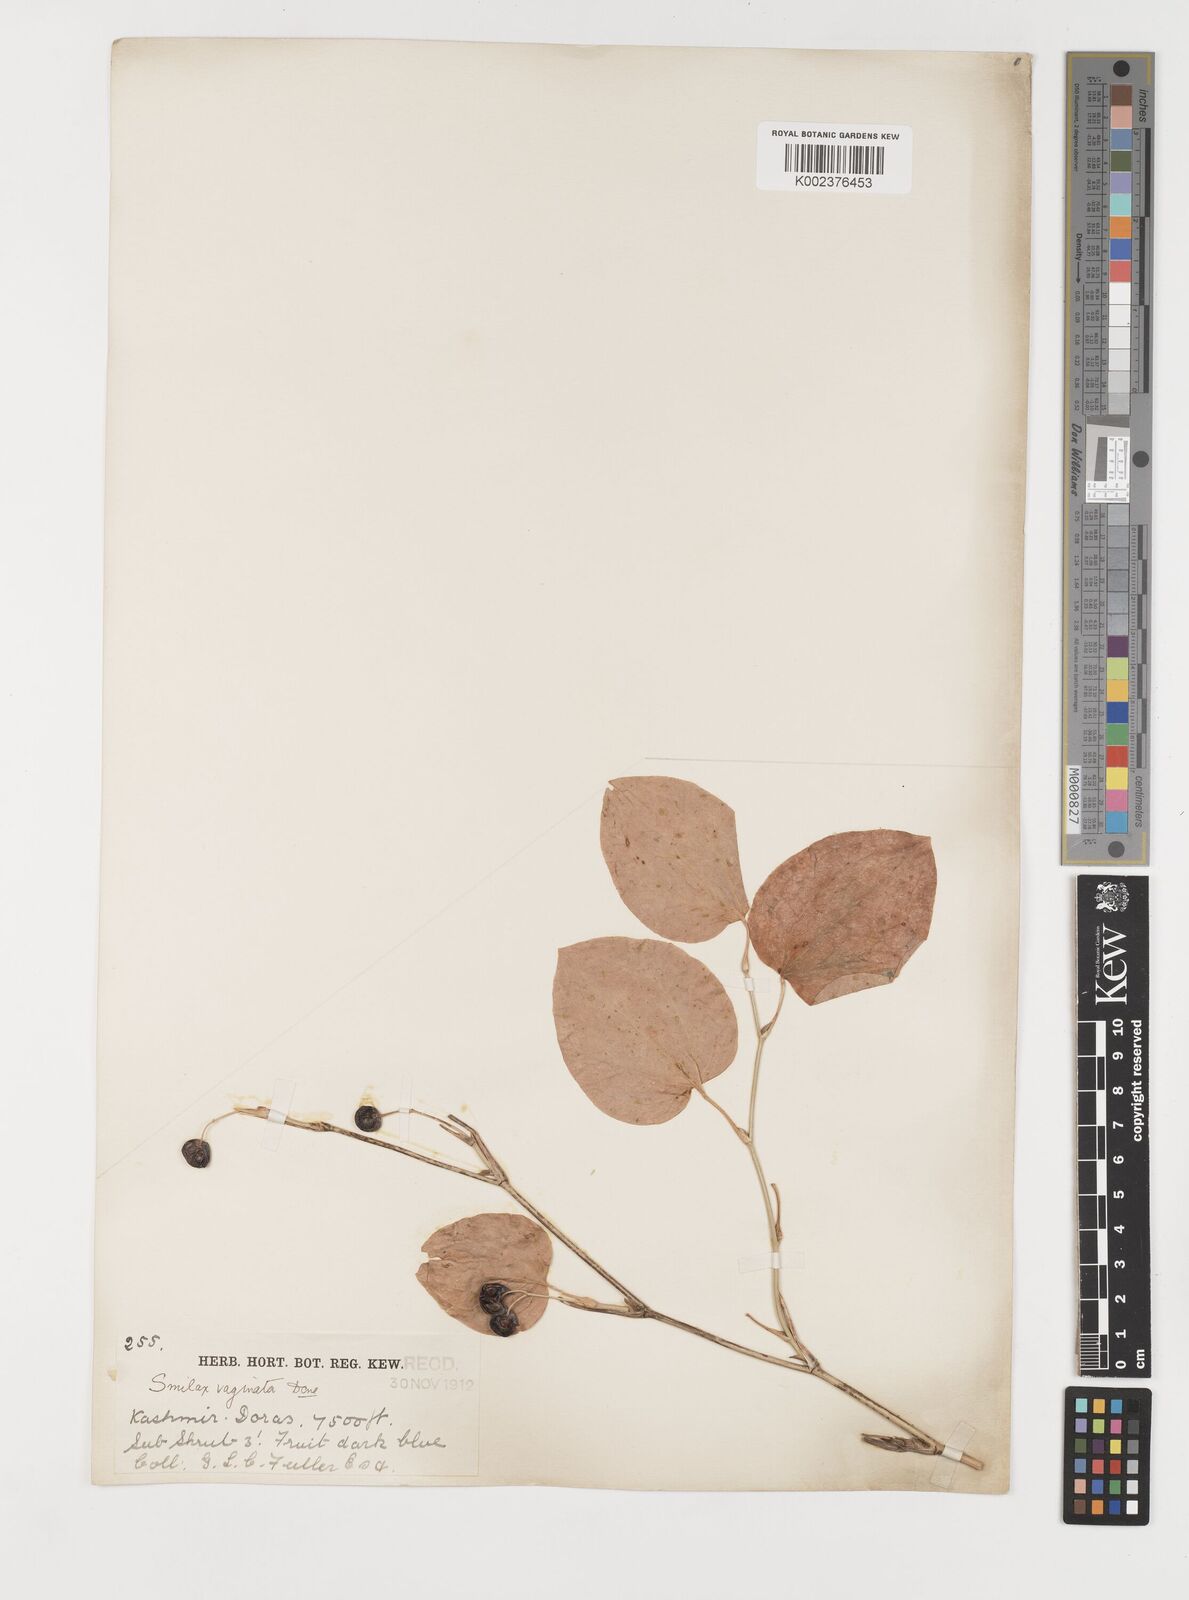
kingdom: Plantae
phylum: Tracheophyta
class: Liliopsida
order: Liliales
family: Smilacaceae
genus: Smilax
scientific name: Smilax vaginata
